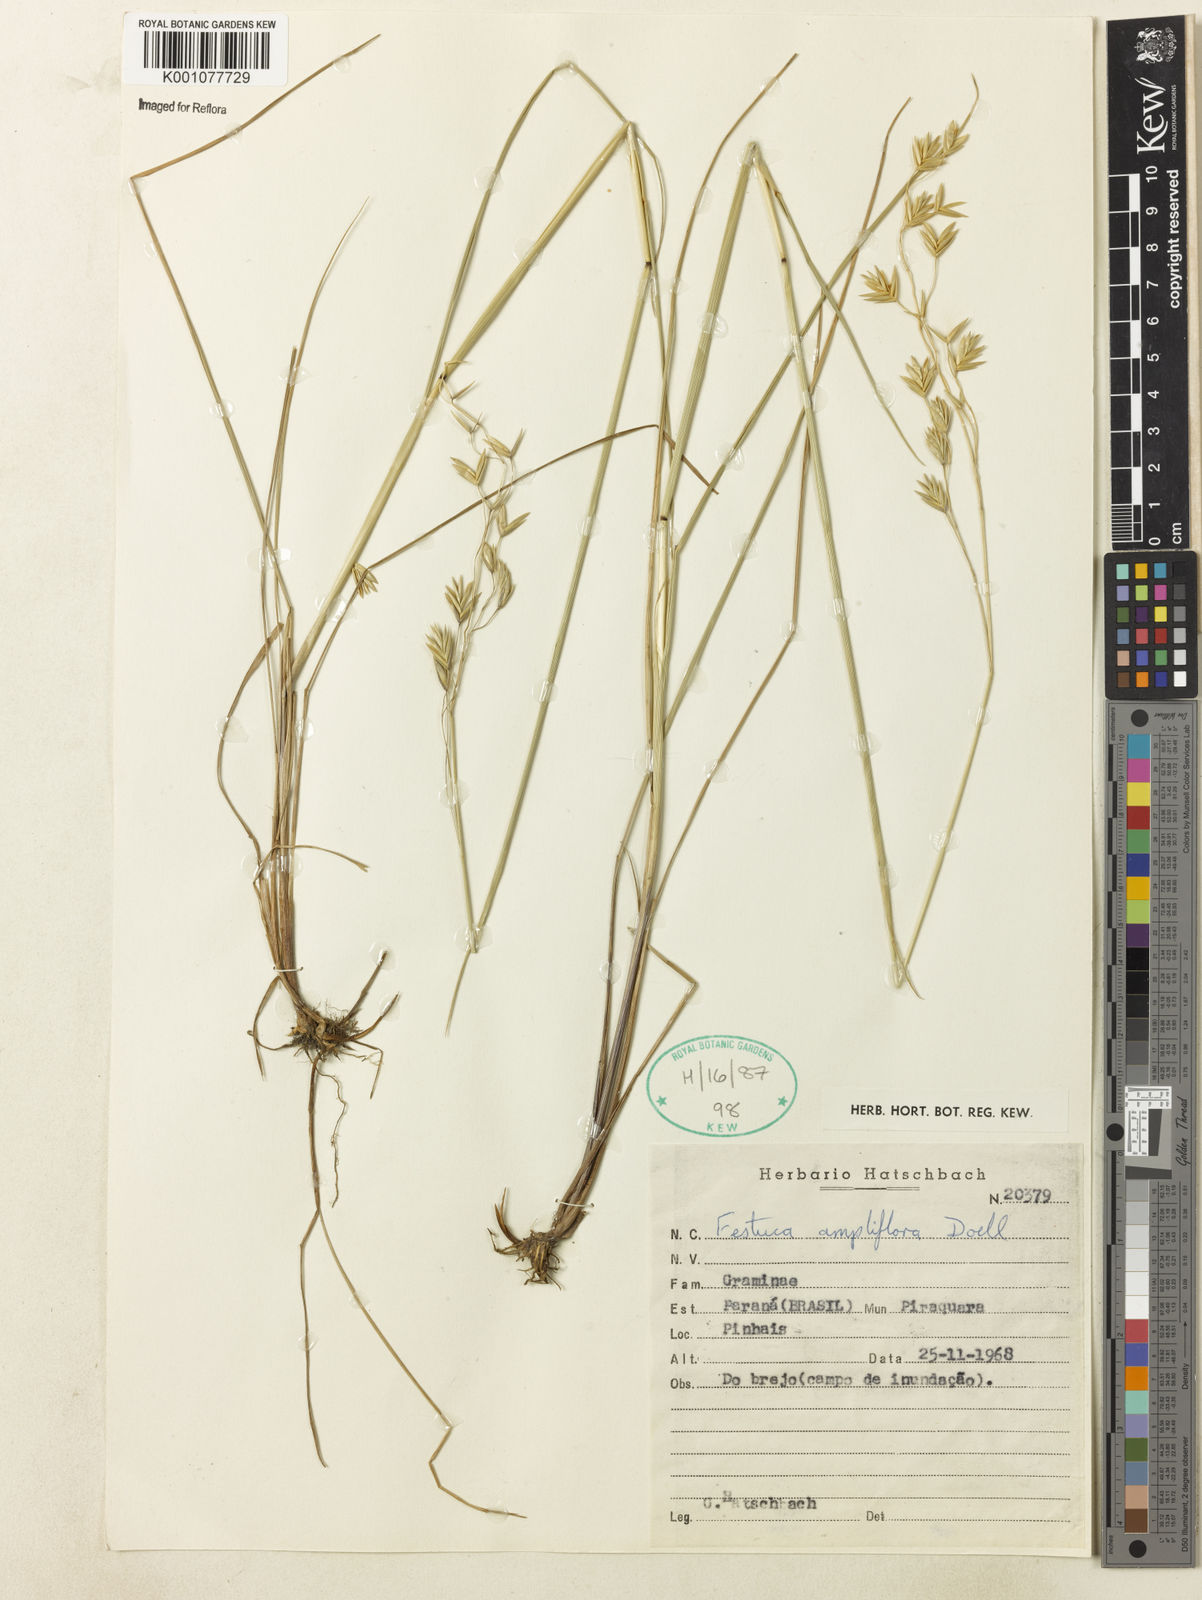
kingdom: Plantae
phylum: Tracheophyta
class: Liliopsida
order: Poales
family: Poaceae
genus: Festuca
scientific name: Festuca fimbriata
